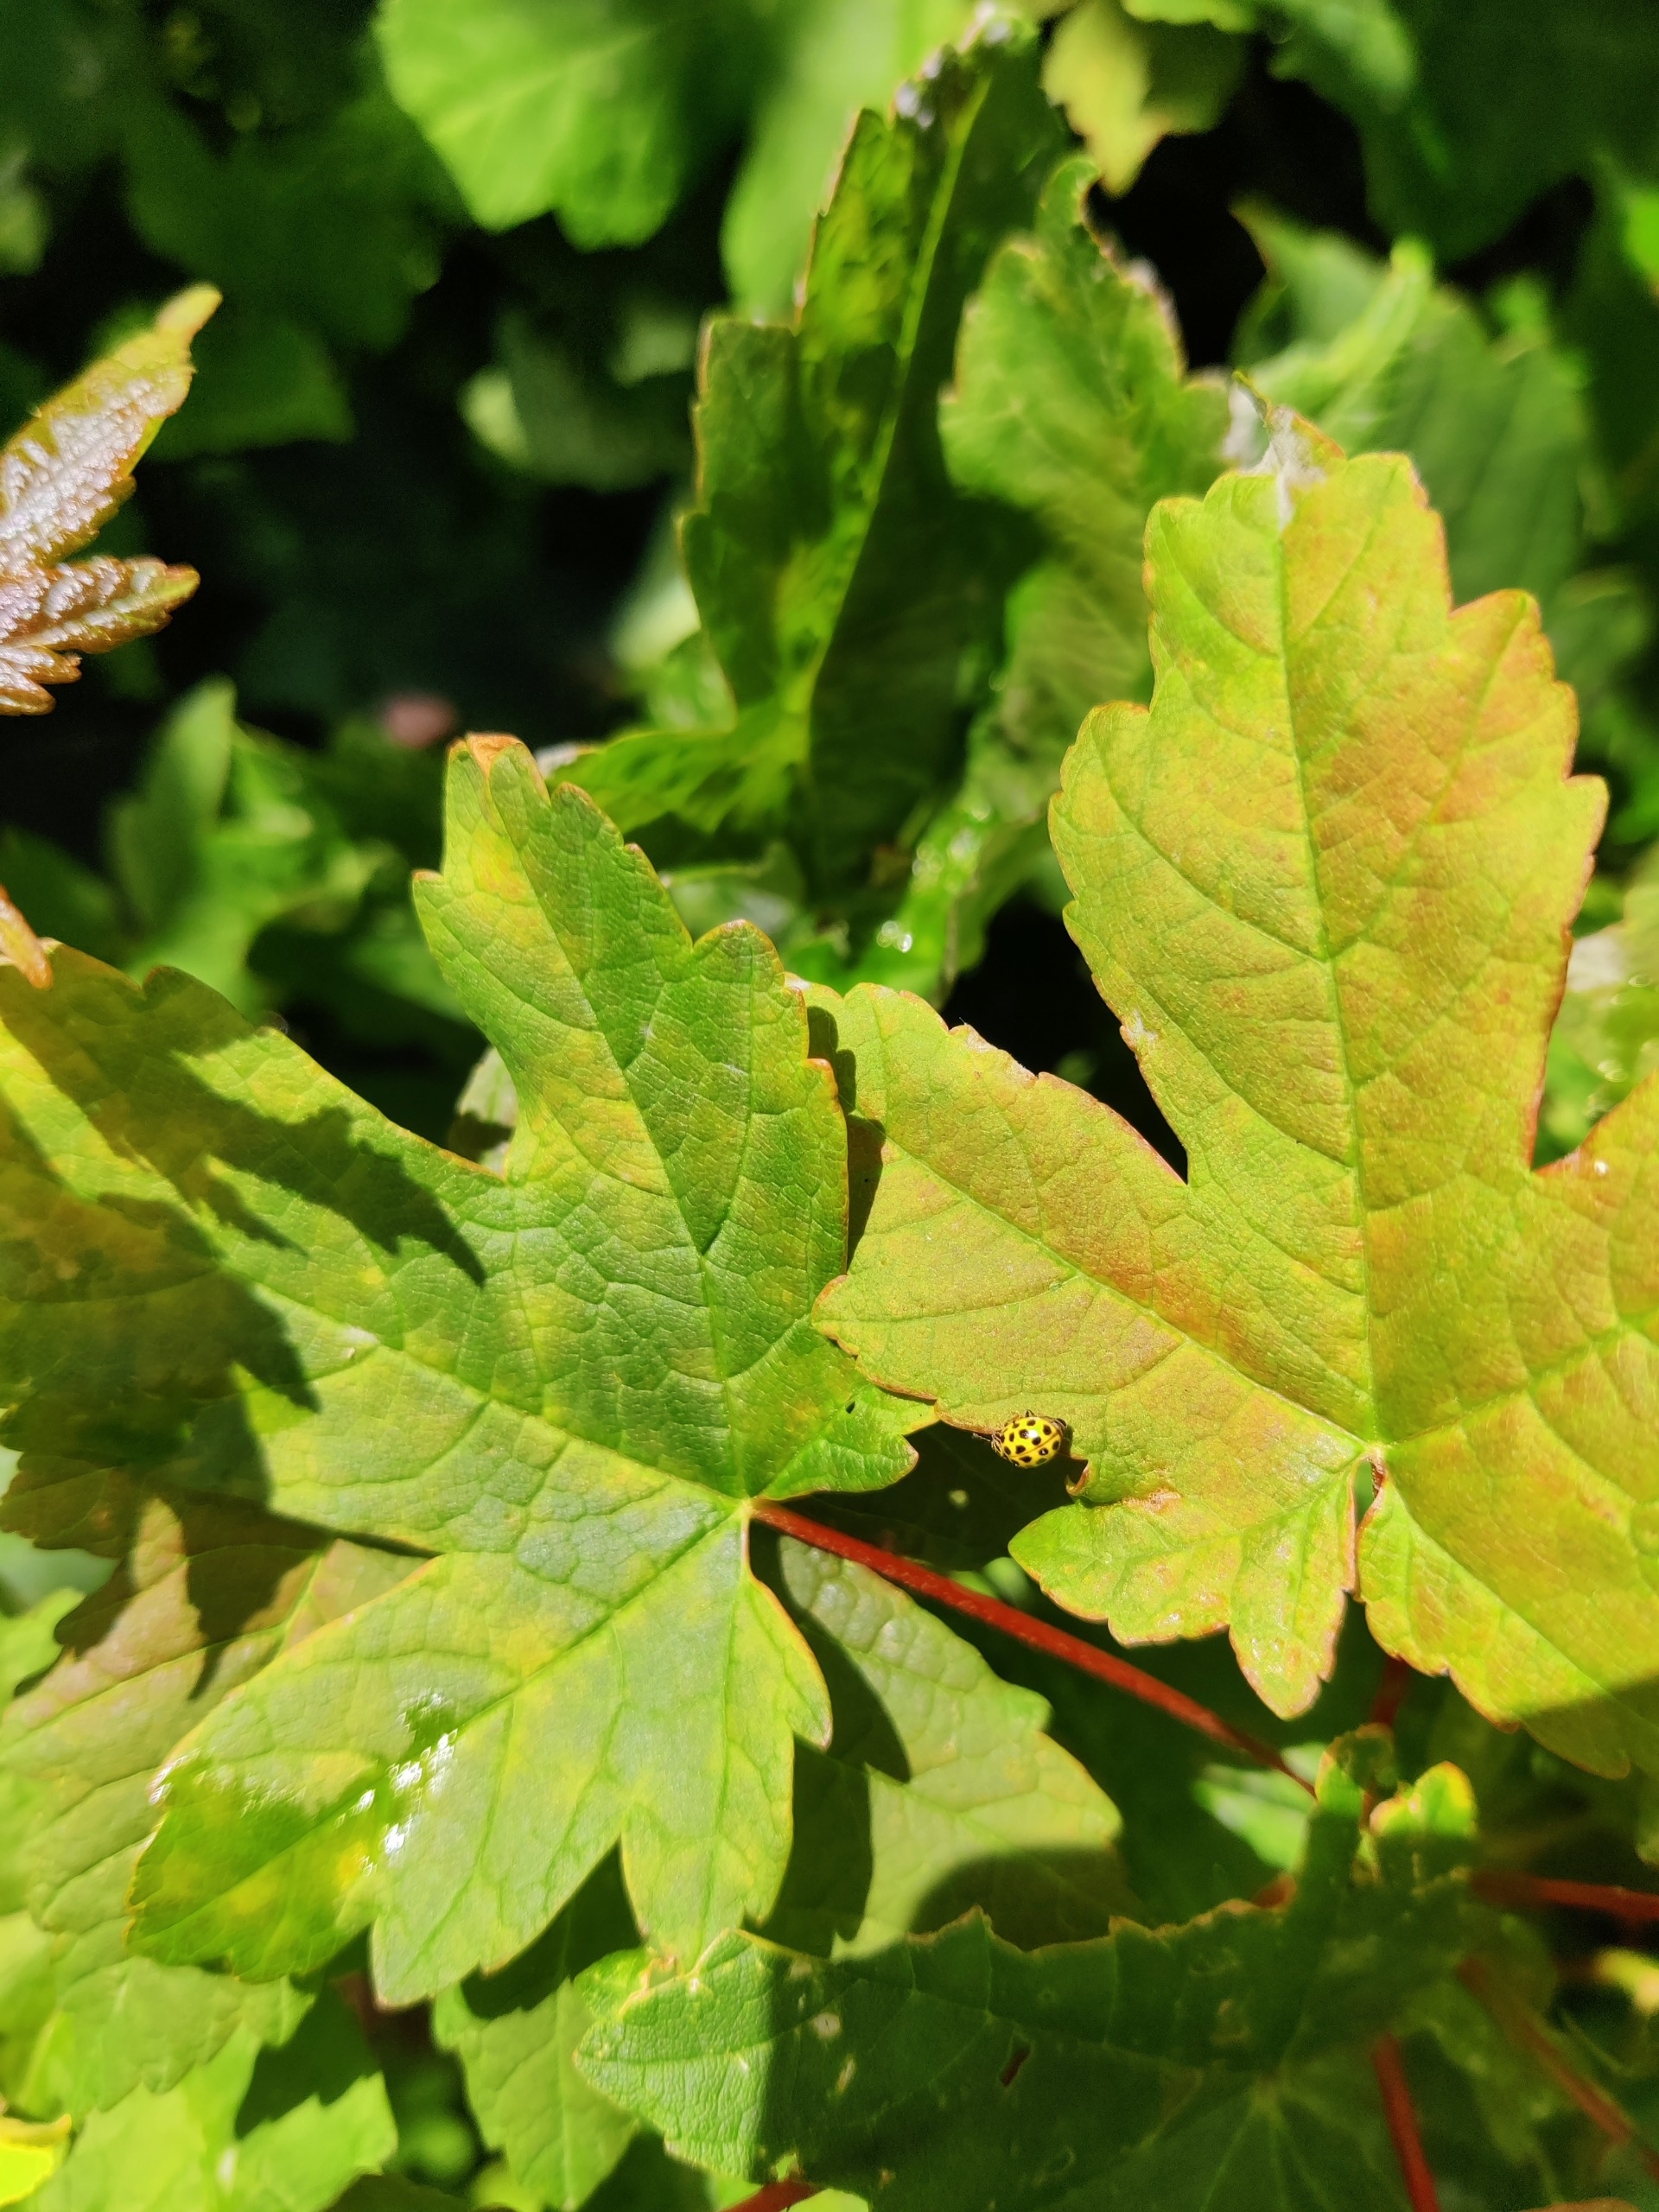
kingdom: Animalia
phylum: Arthropoda
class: Insecta
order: Coleoptera
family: Coccinellidae
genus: Psyllobora
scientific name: Psyllobora vigintiduopunctata
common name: Toogtyveplettet mariehøne
